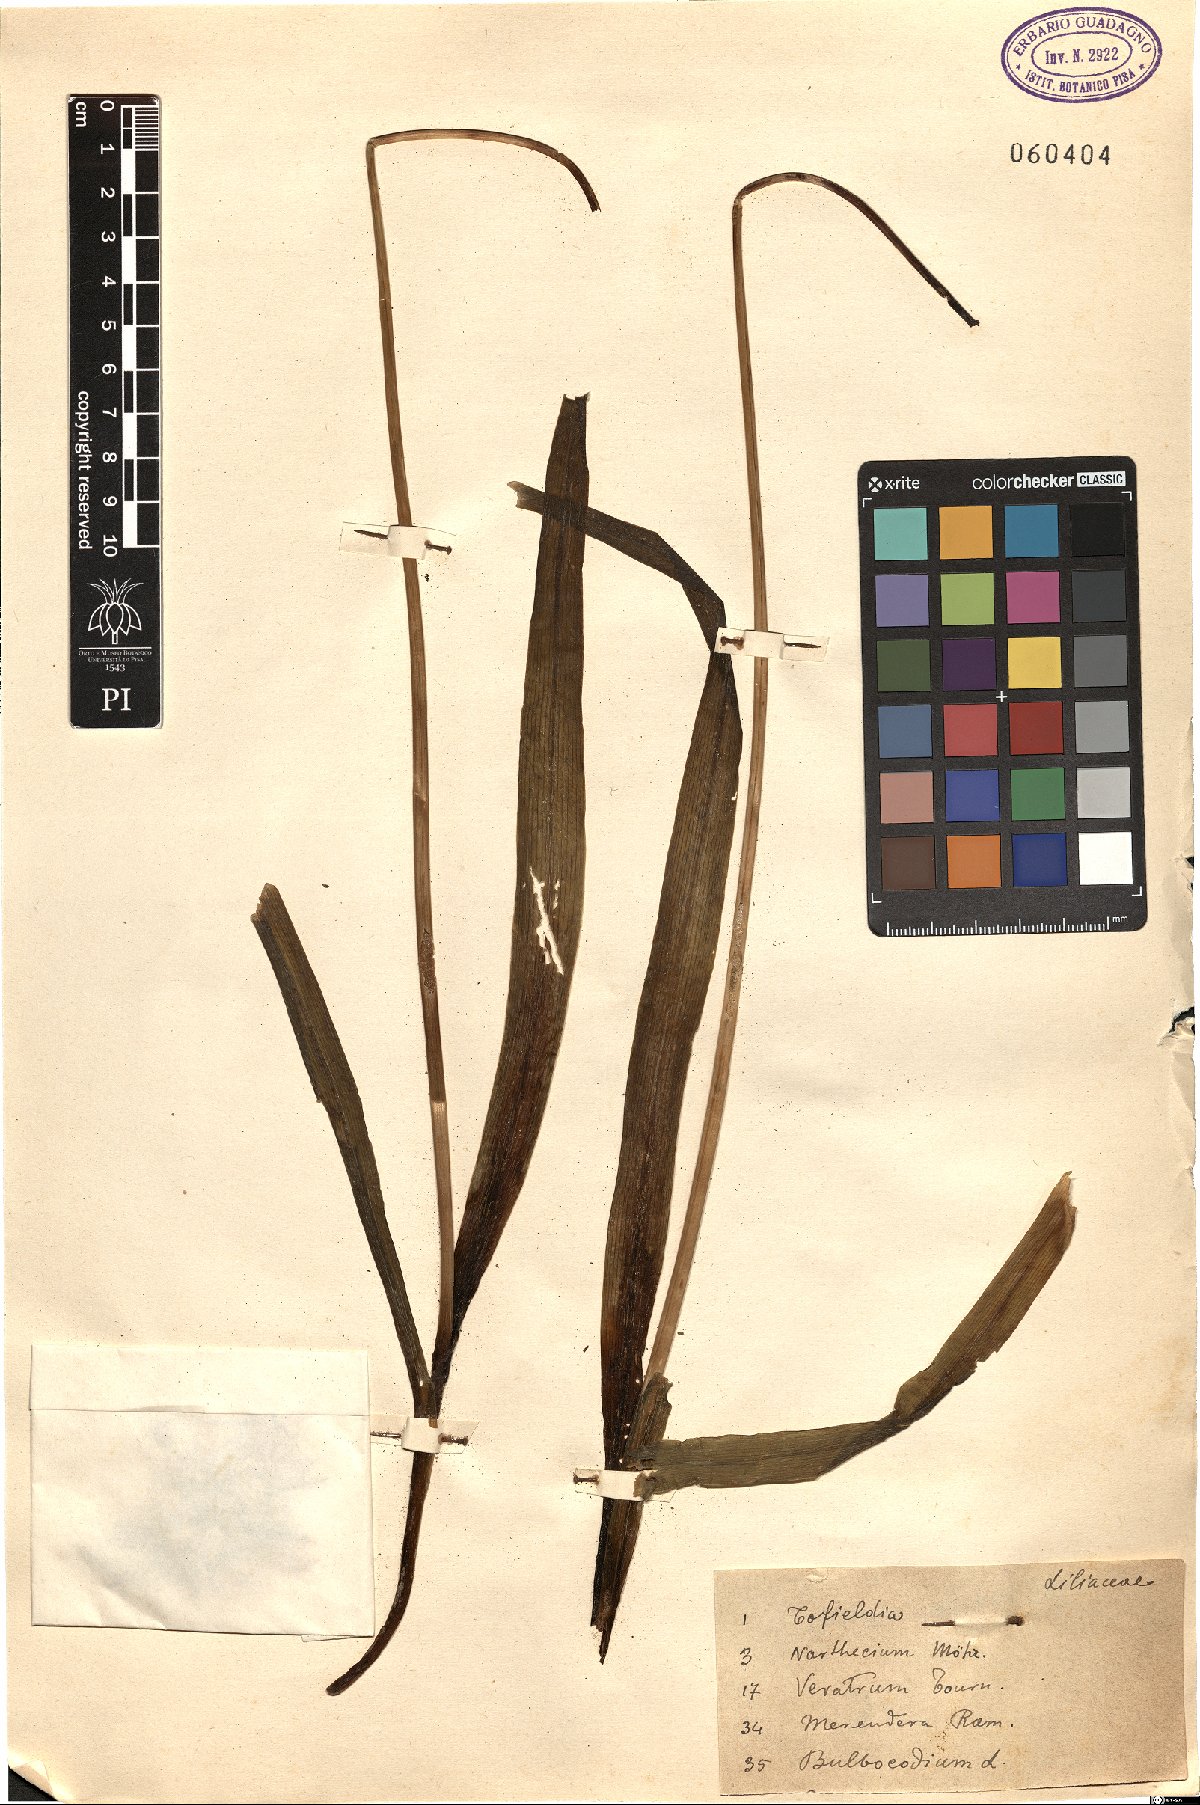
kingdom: Plantae
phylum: Tracheophyta
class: Liliopsida
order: Asparagales
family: Amaryllidaceae
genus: Nothoscordum
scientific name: Nothoscordum gracile
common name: Slender false garlic
